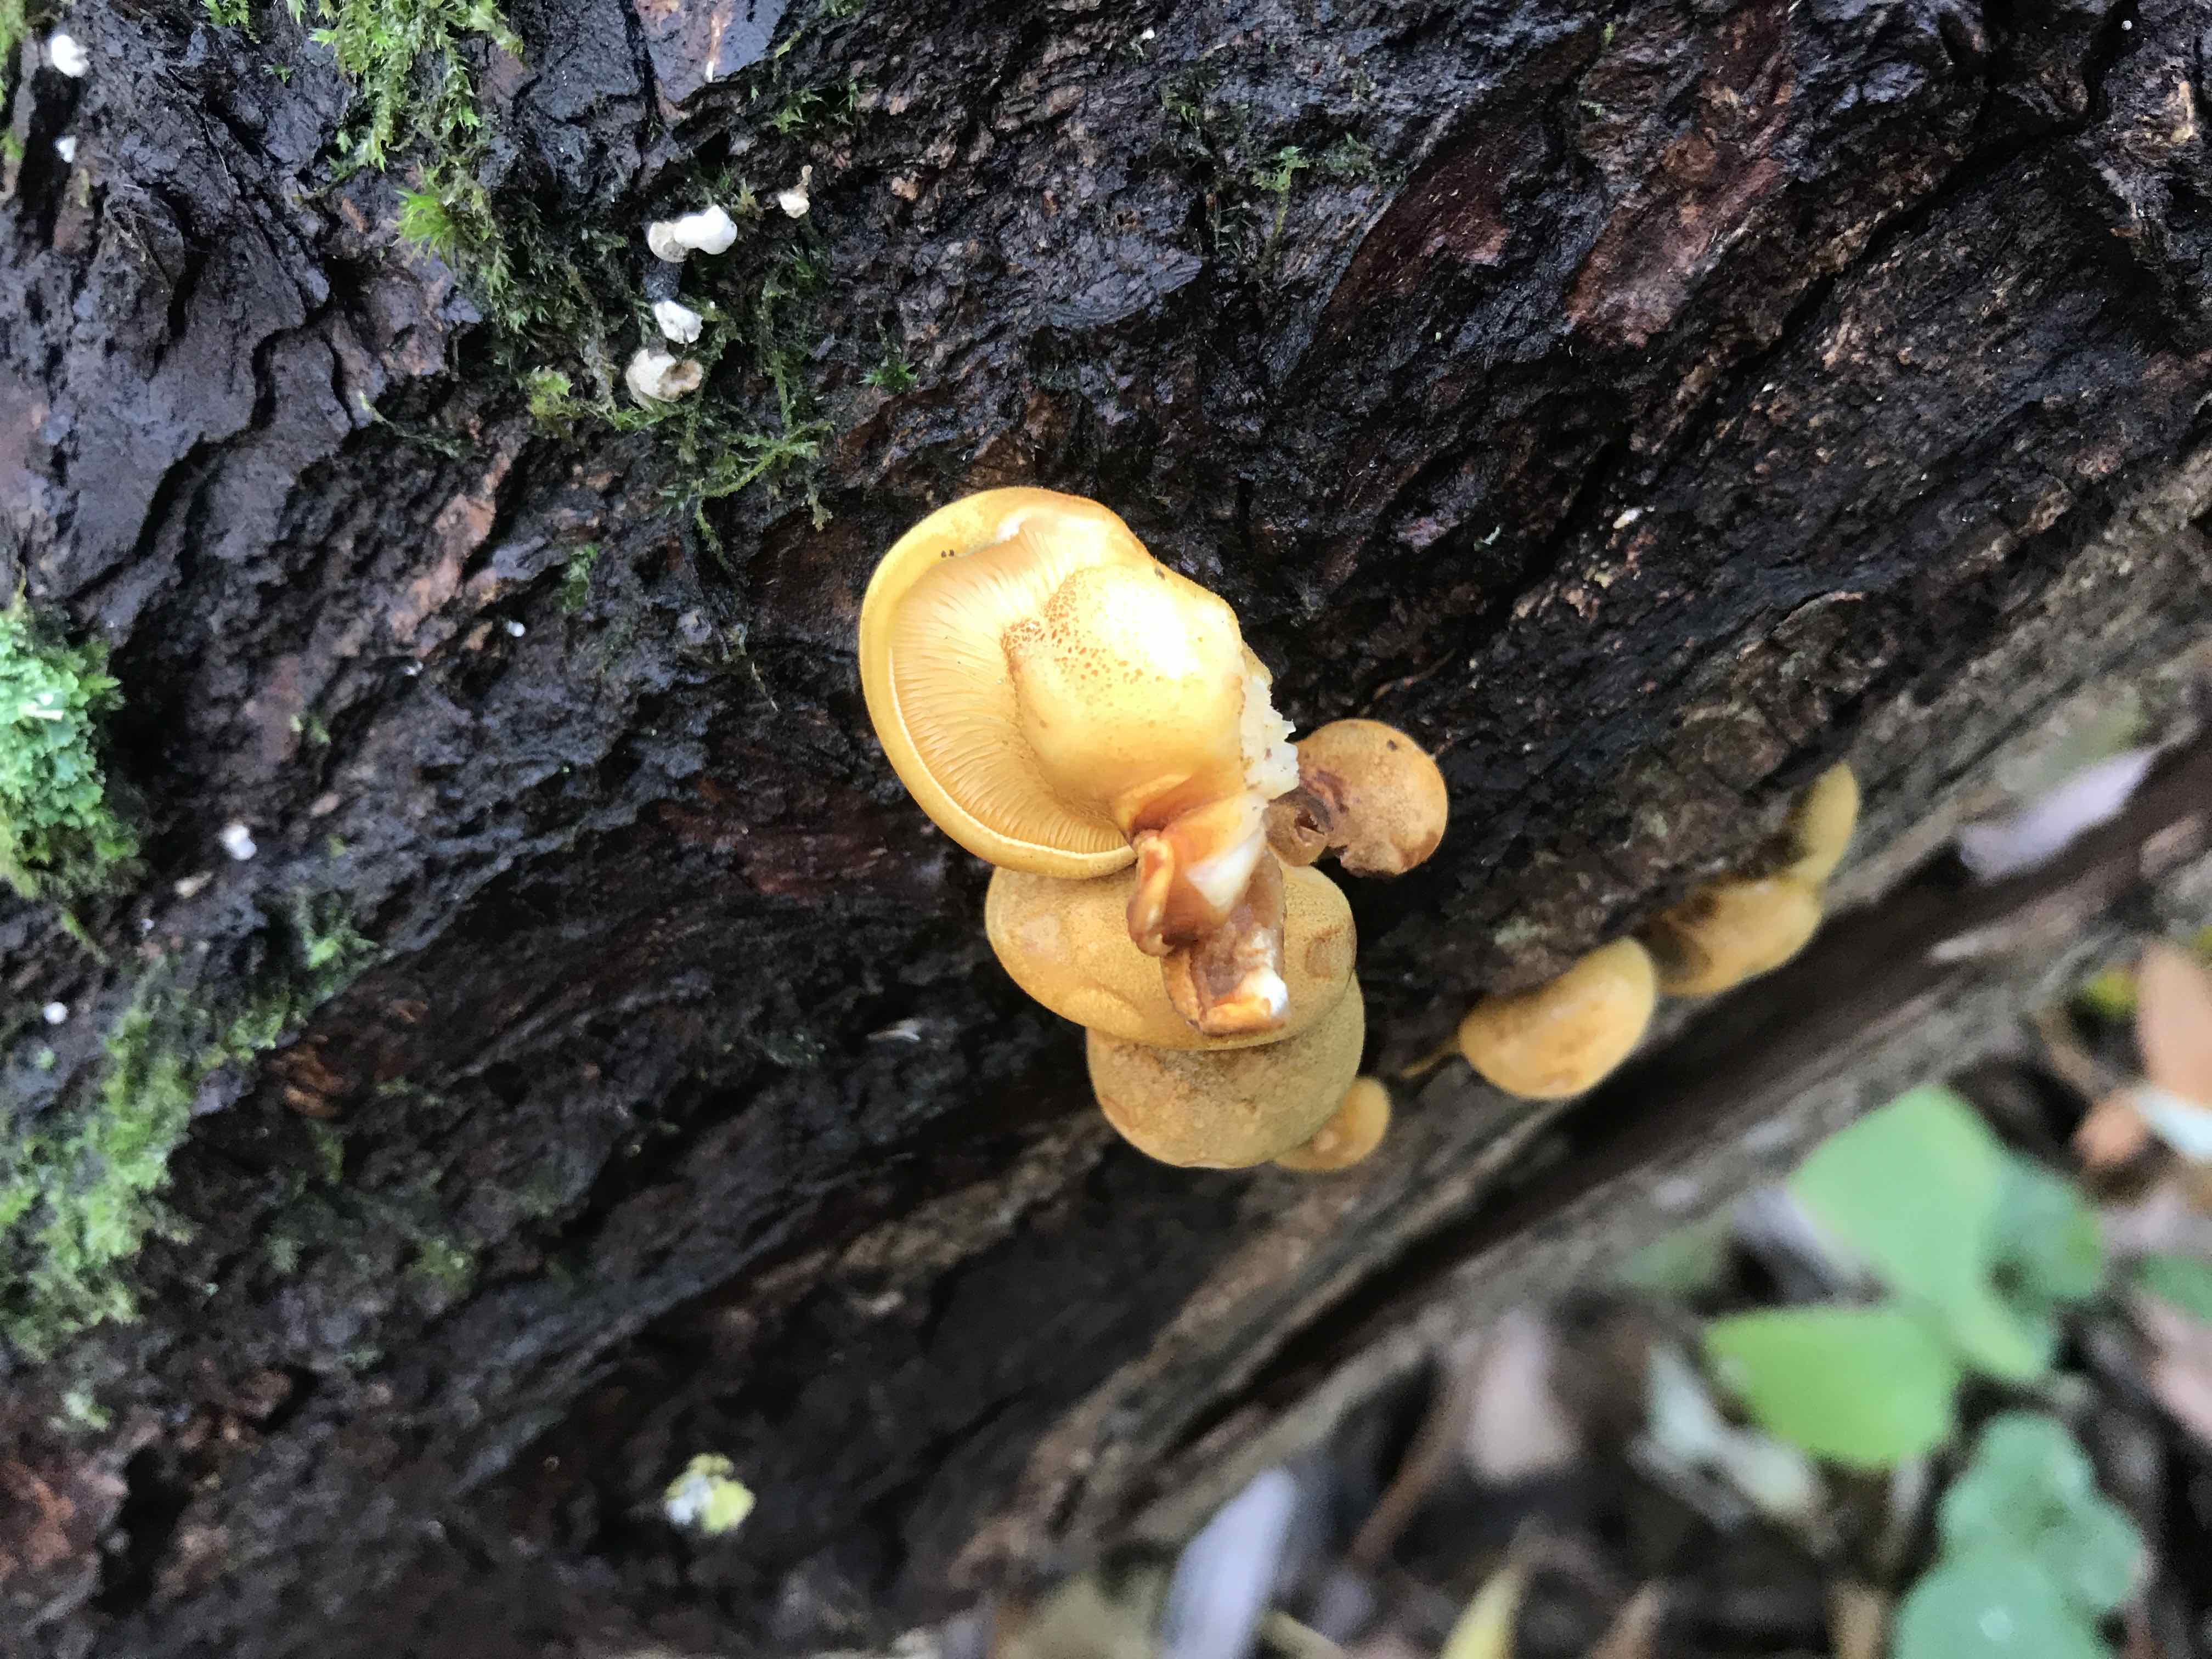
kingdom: Fungi
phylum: Basidiomycota
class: Agaricomycetes
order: Agaricales
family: Sarcomyxaceae
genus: Sarcomyxa
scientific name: Sarcomyxa serotina
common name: gummihat
